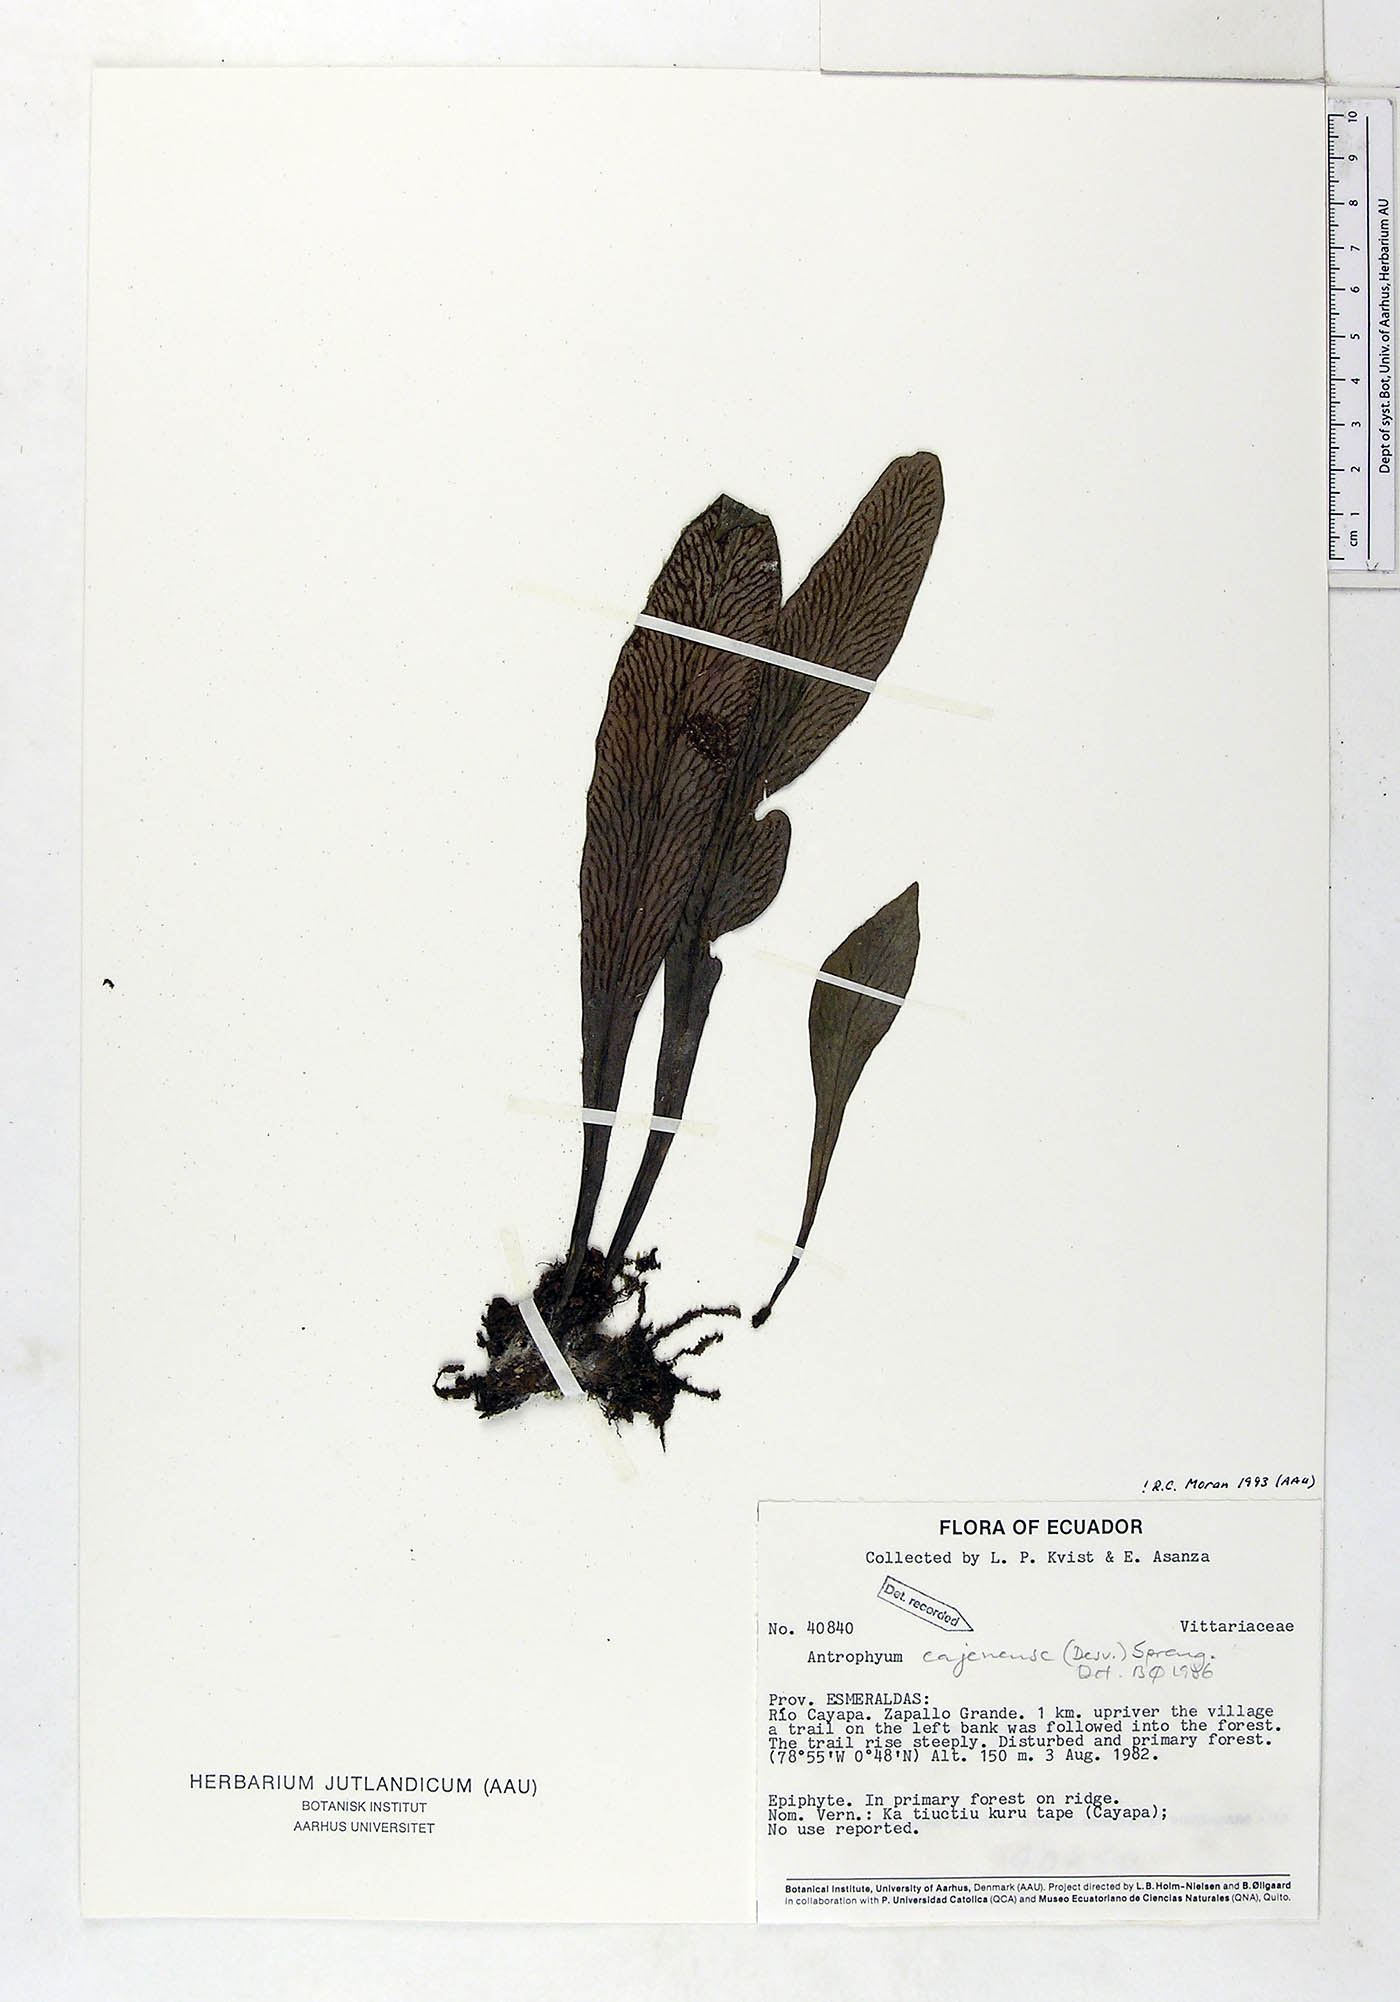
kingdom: Plantae
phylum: Tracheophyta
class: Polypodiopsida
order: Polypodiales
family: Pteridaceae
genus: Polytaenium
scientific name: Polytaenium cajenense
